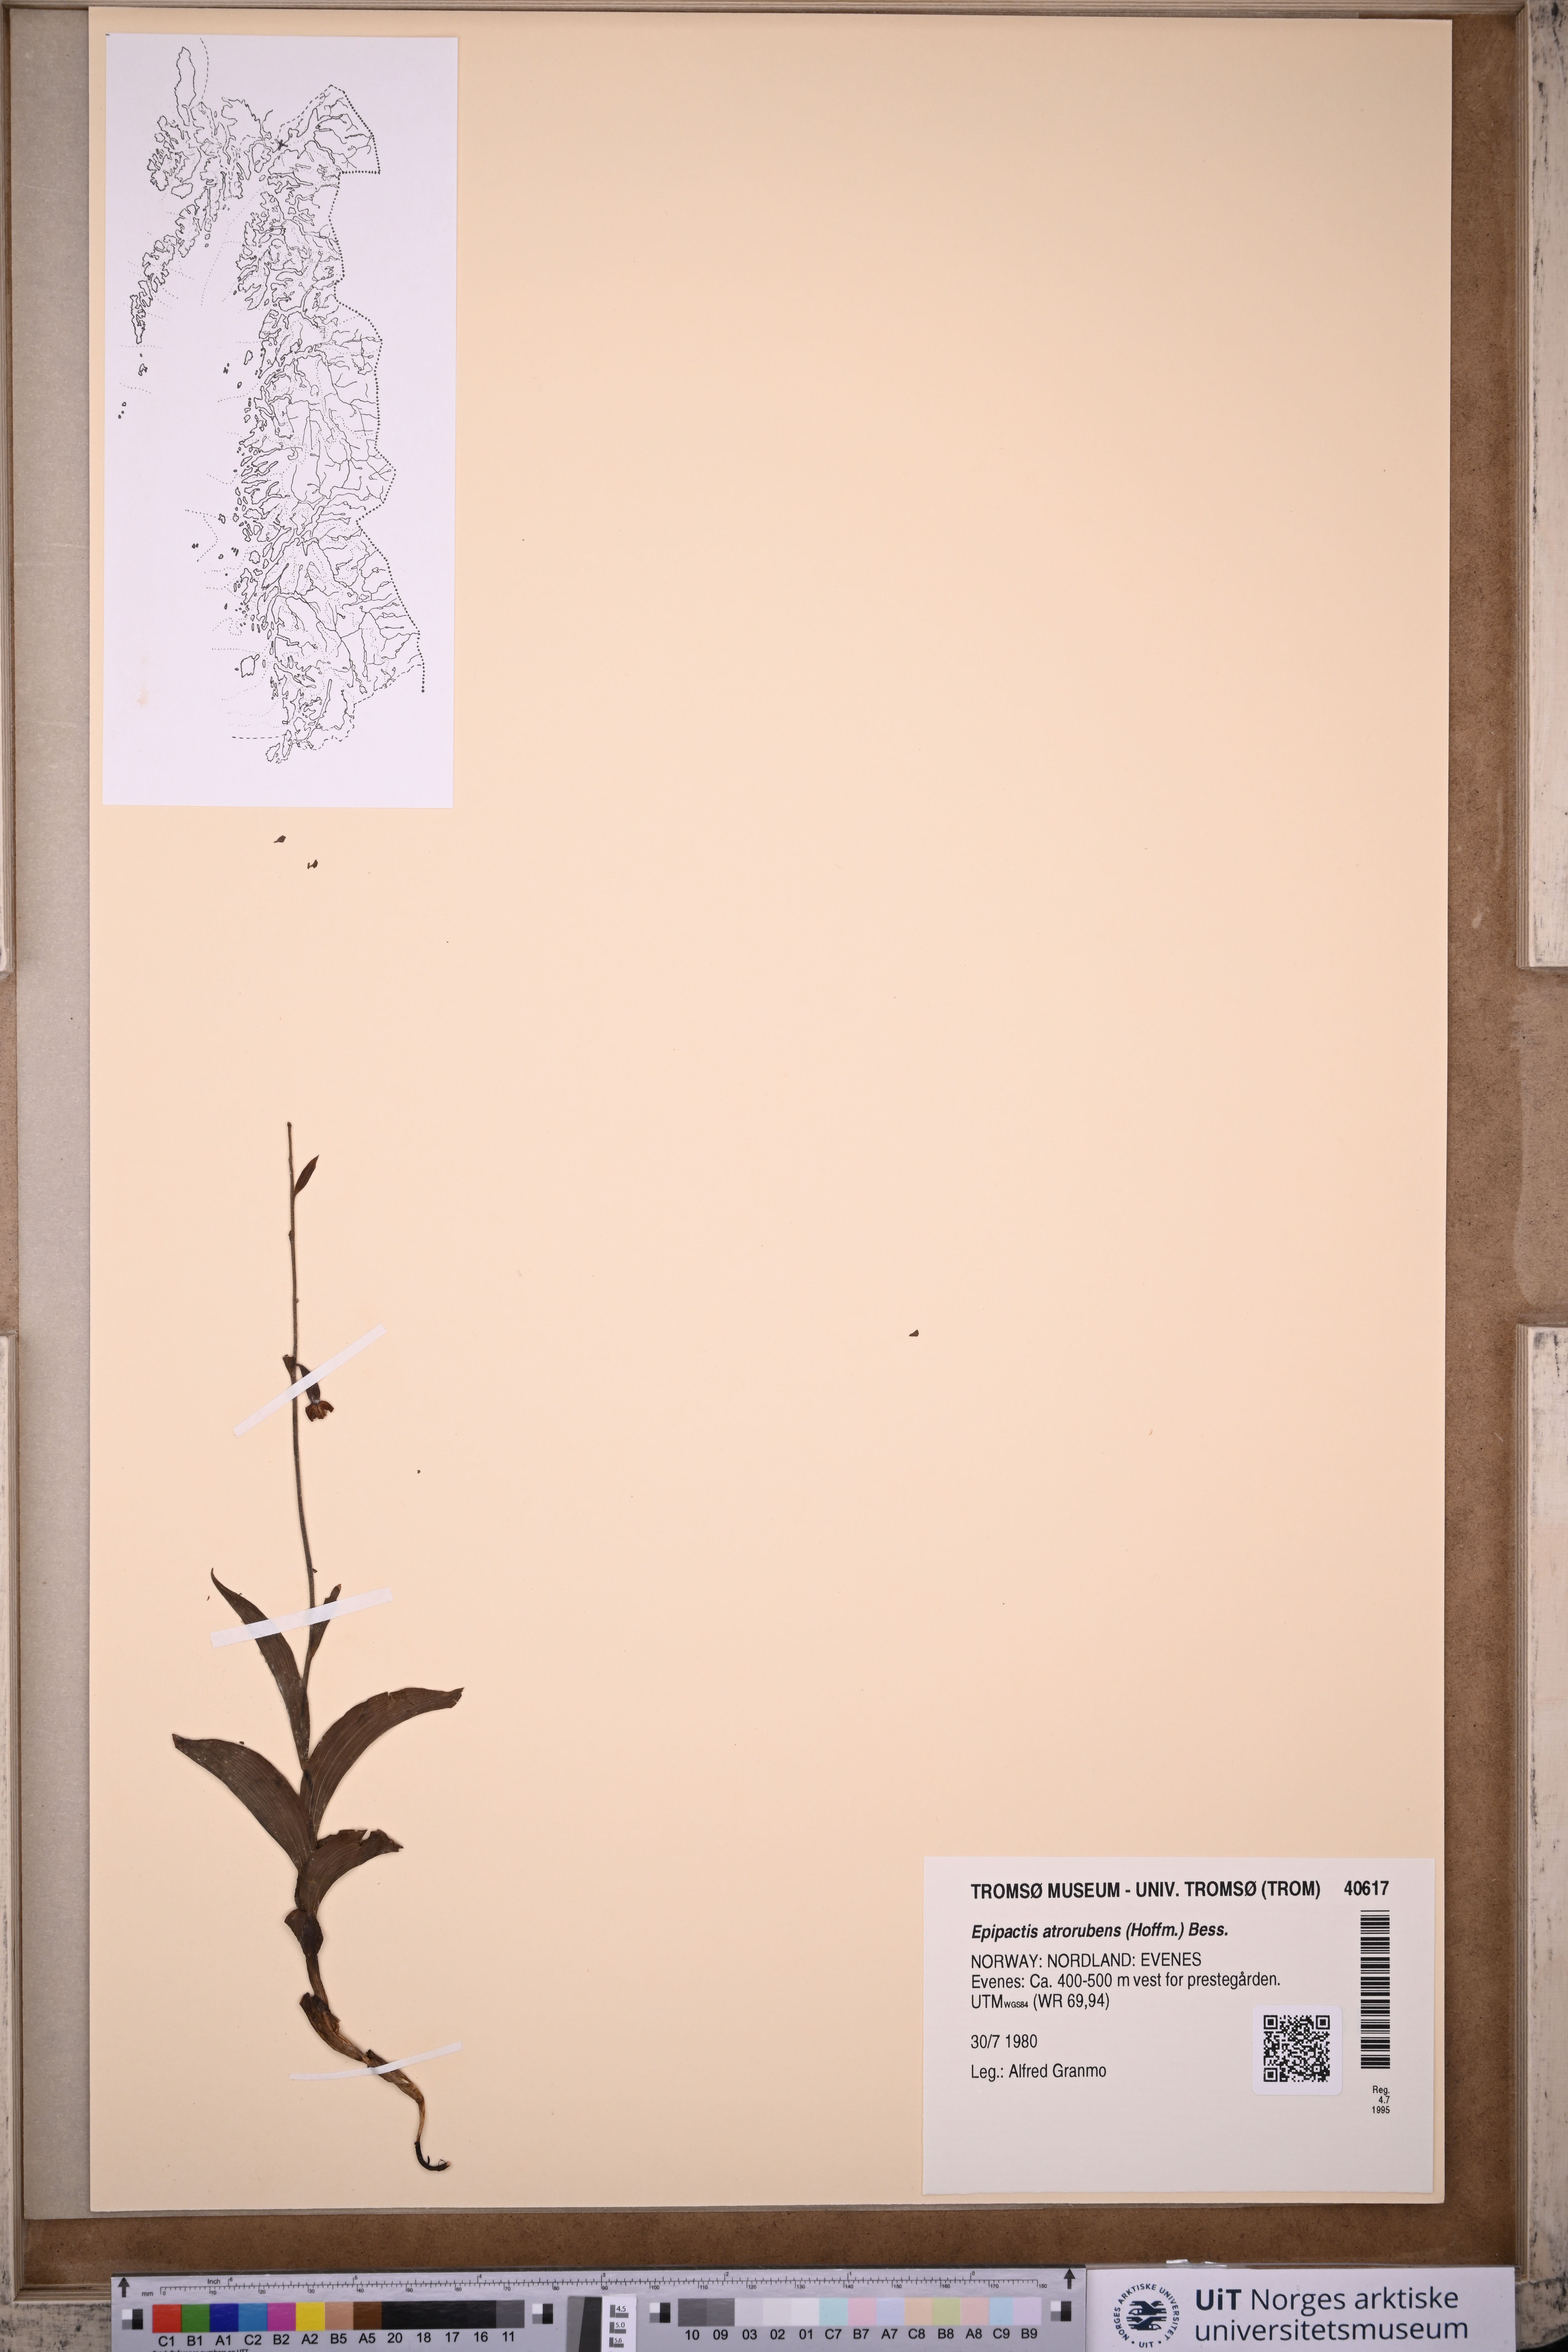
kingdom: Plantae
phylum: Tracheophyta
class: Liliopsida
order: Asparagales
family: Orchidaceae
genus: Epipactis
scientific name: Epipactis atrorubens
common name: Dark-red helleborine
